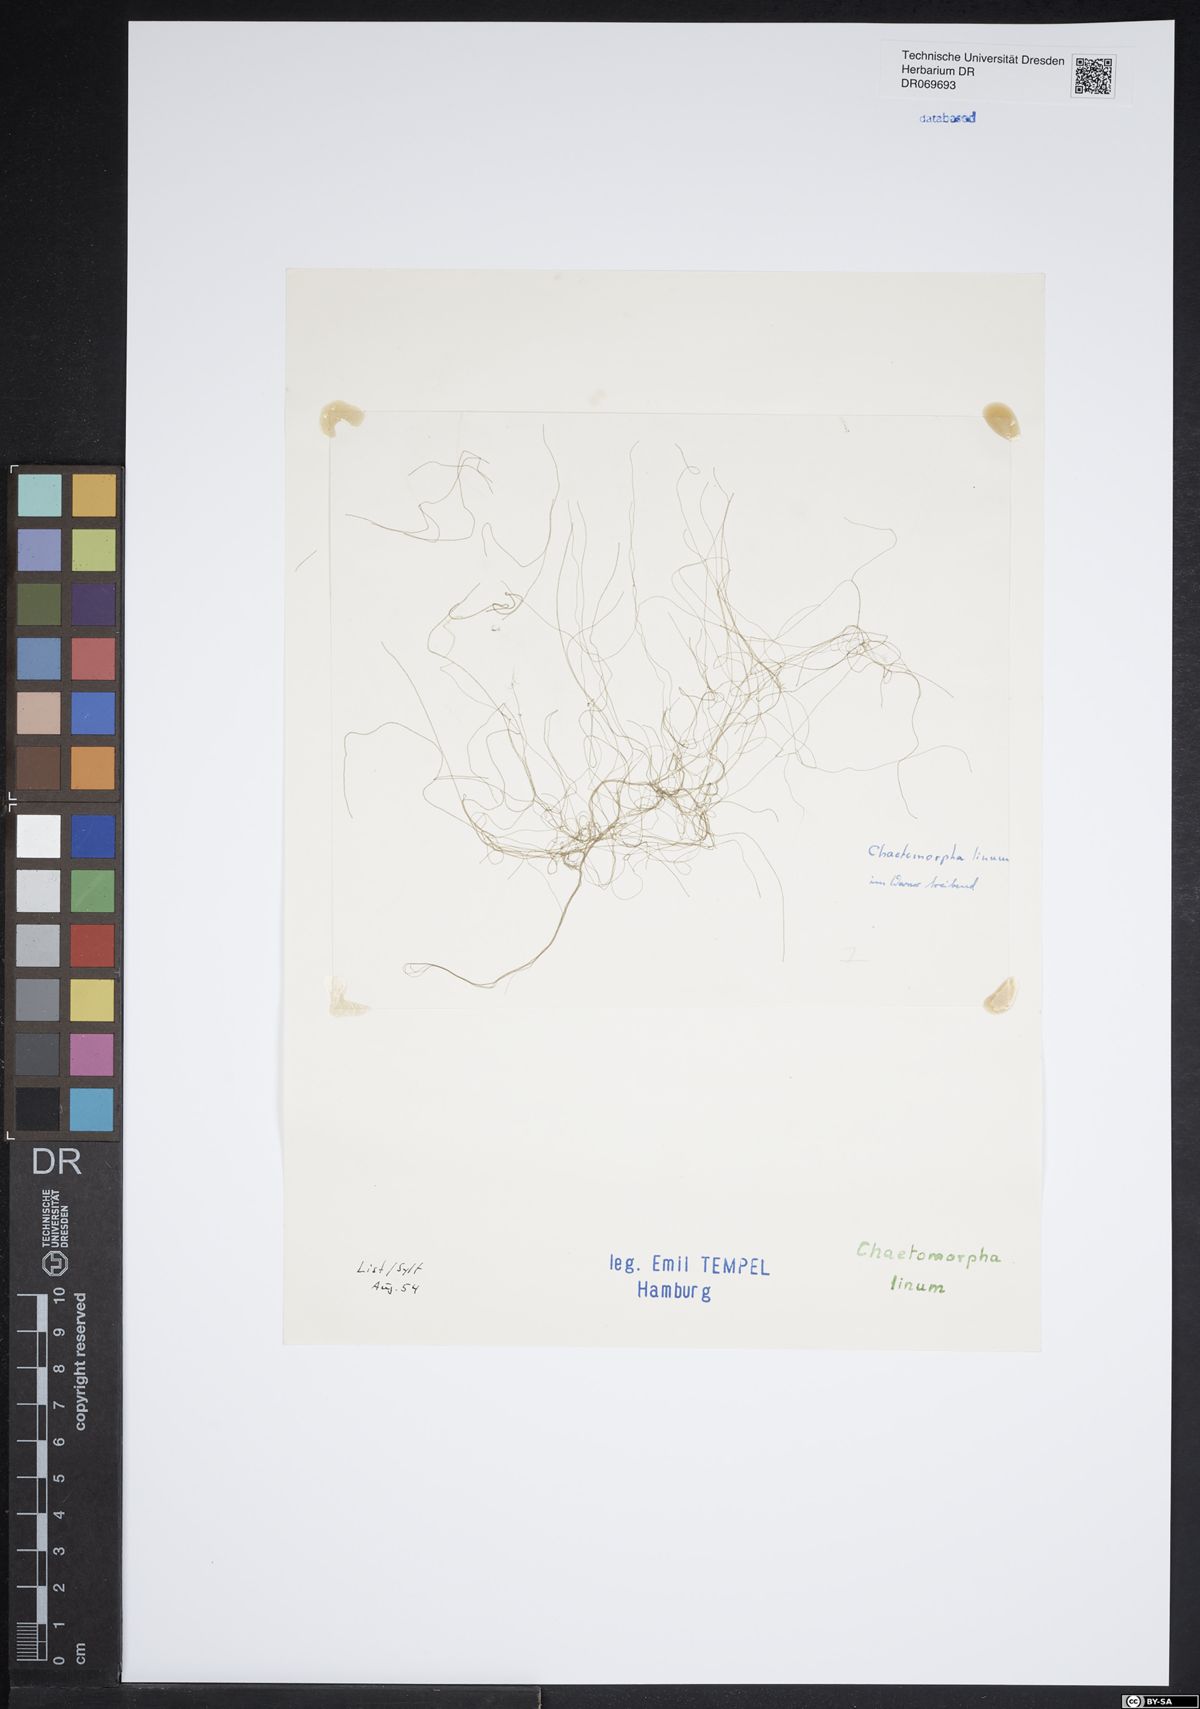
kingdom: Plantae
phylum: Chlorophyta
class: Ulvophyceae
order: Cladophorales
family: Cladophoraceae
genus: Chaetomorpha
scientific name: Chaetomorpha linum
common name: Sea hair
